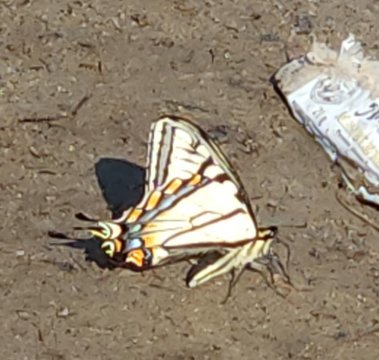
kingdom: Animalia
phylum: Arthropoda
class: Insecta
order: Lepidoptera
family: Papilionidae
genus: Pterourus
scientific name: Pterourus canadensis
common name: Canadian Tiger Swallowtail
